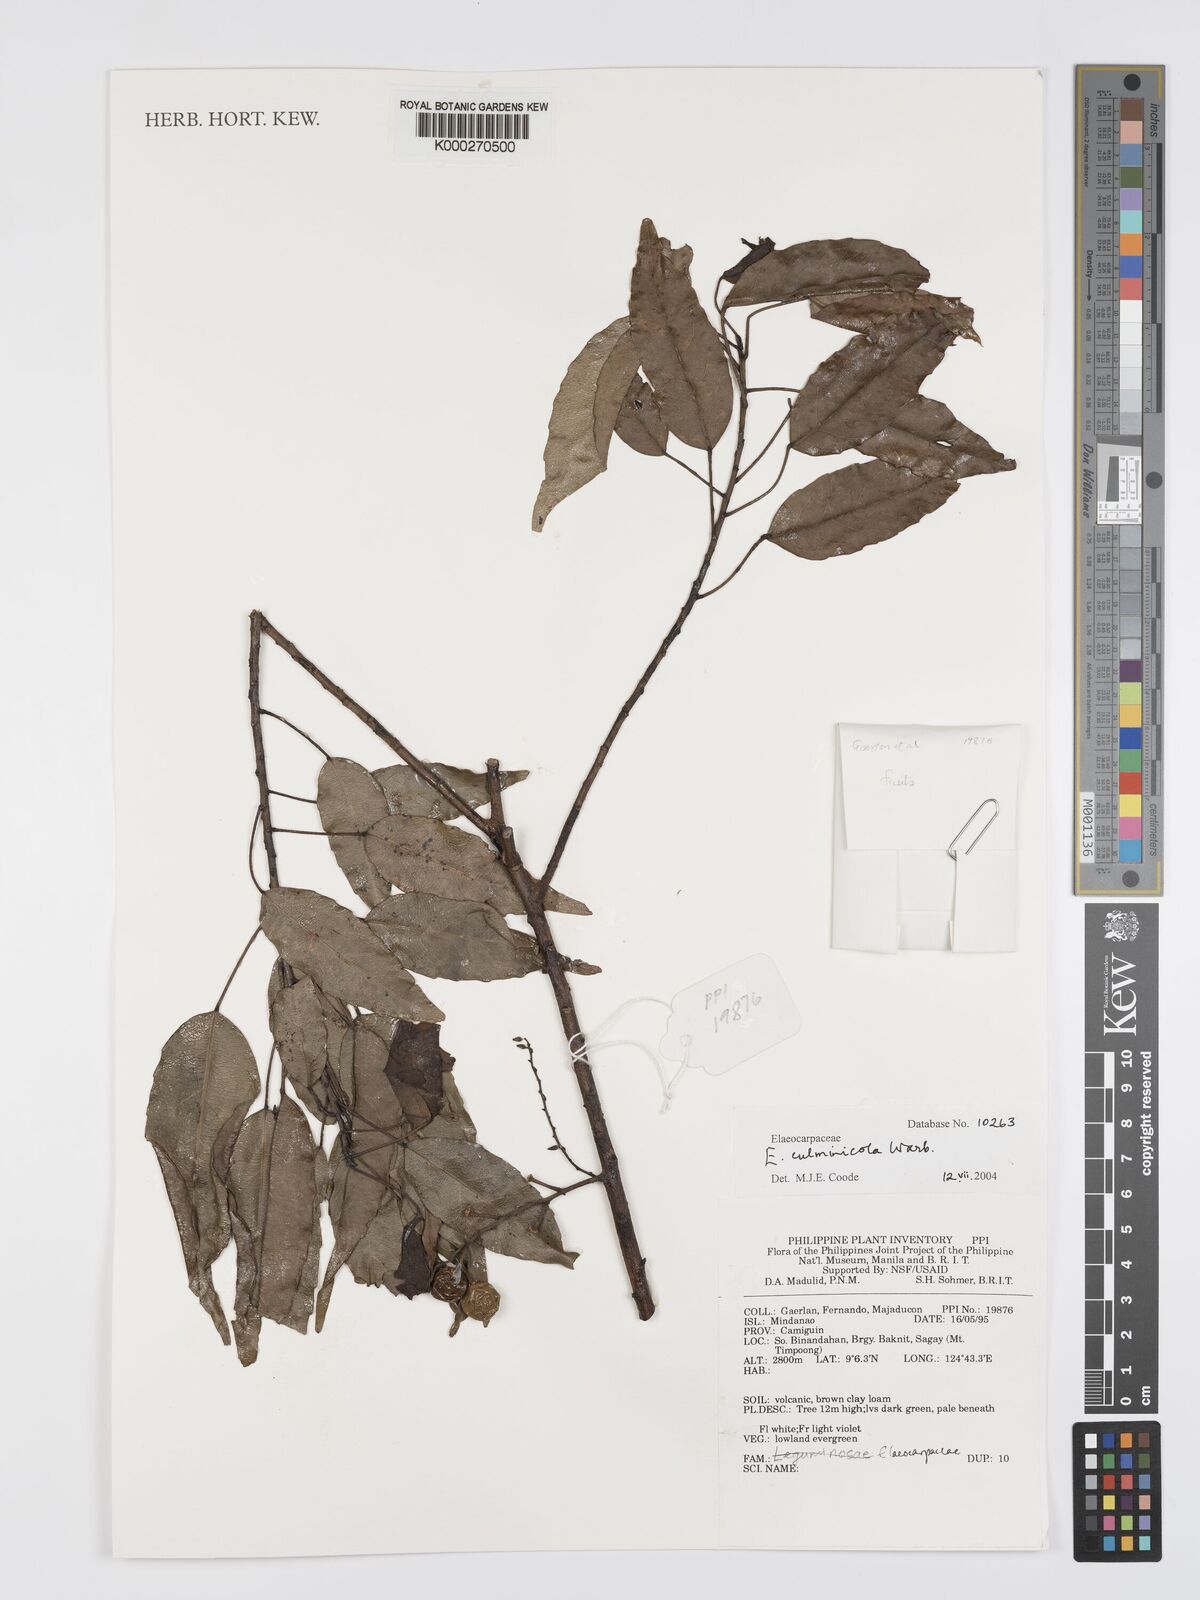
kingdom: Plantae
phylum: Tracheophyta
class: Magnoliopsida
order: Oxalidales
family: Elaeocarpaceae
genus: Elaeocarpus
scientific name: Elaeocarpus culminicola
